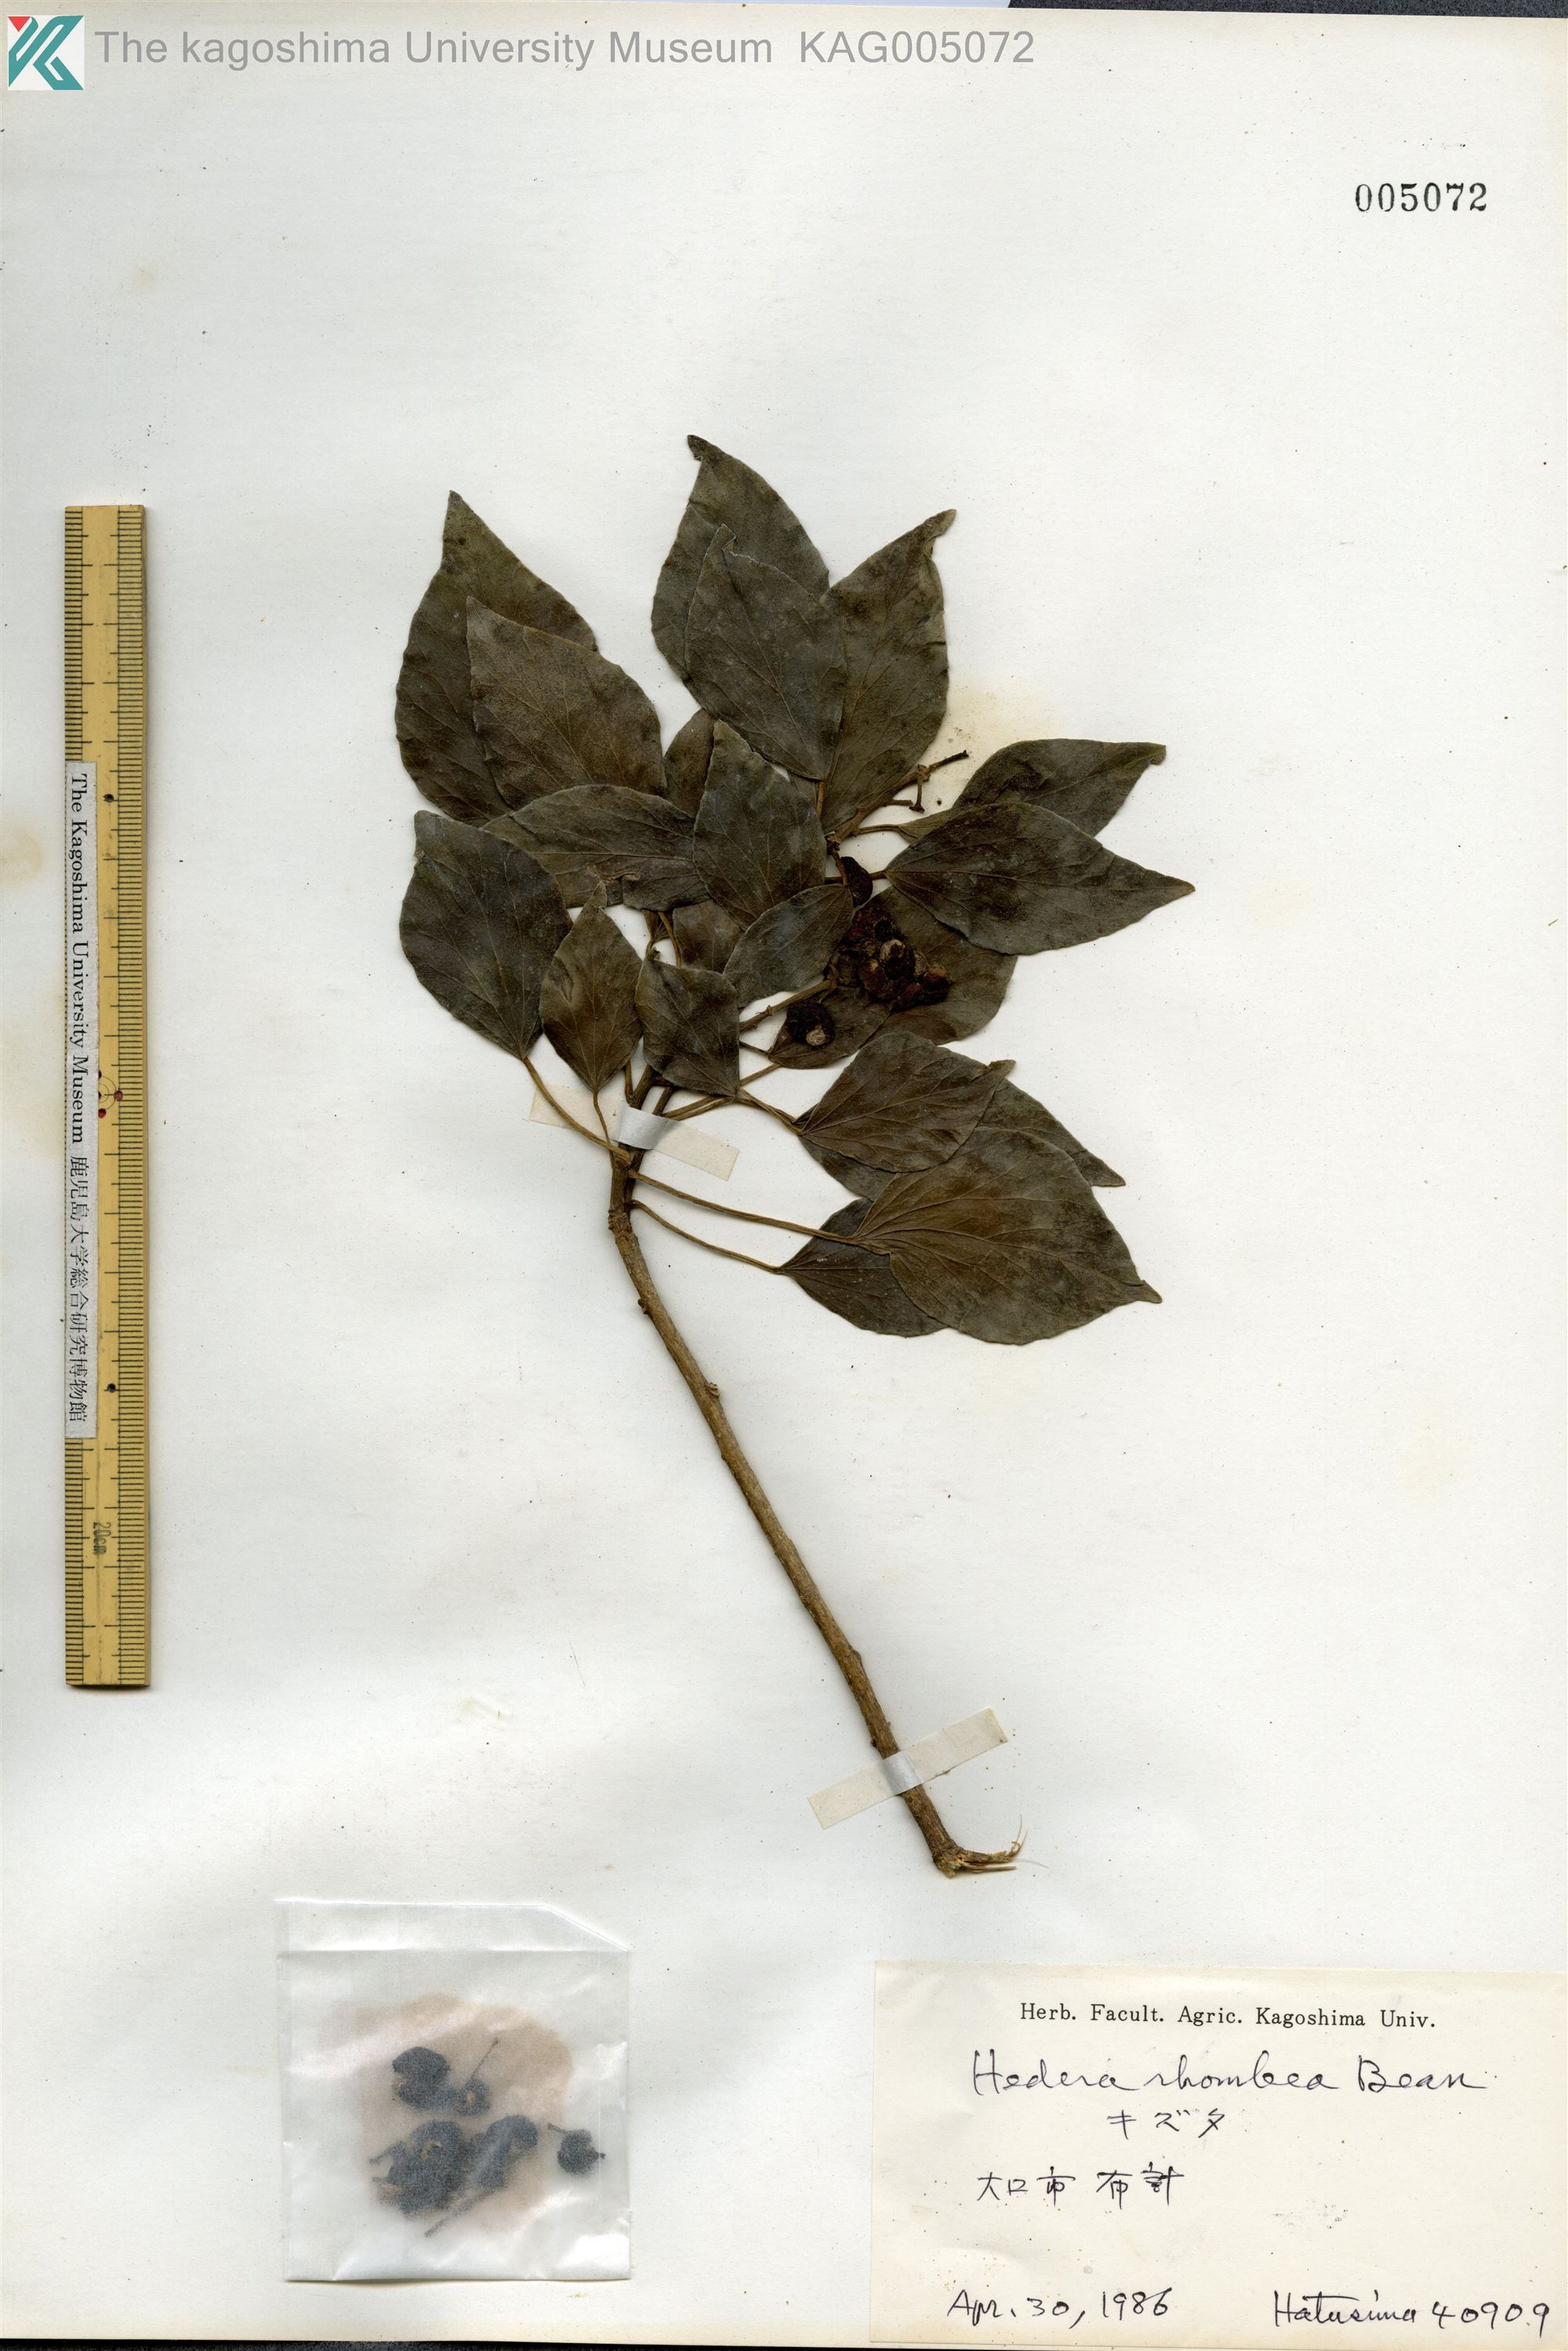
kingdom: Plantae
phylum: Tracheophyta
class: Magnoliopsida
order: Apiales
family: Araliaceae
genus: Hedera
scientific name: Hedera rhombea
